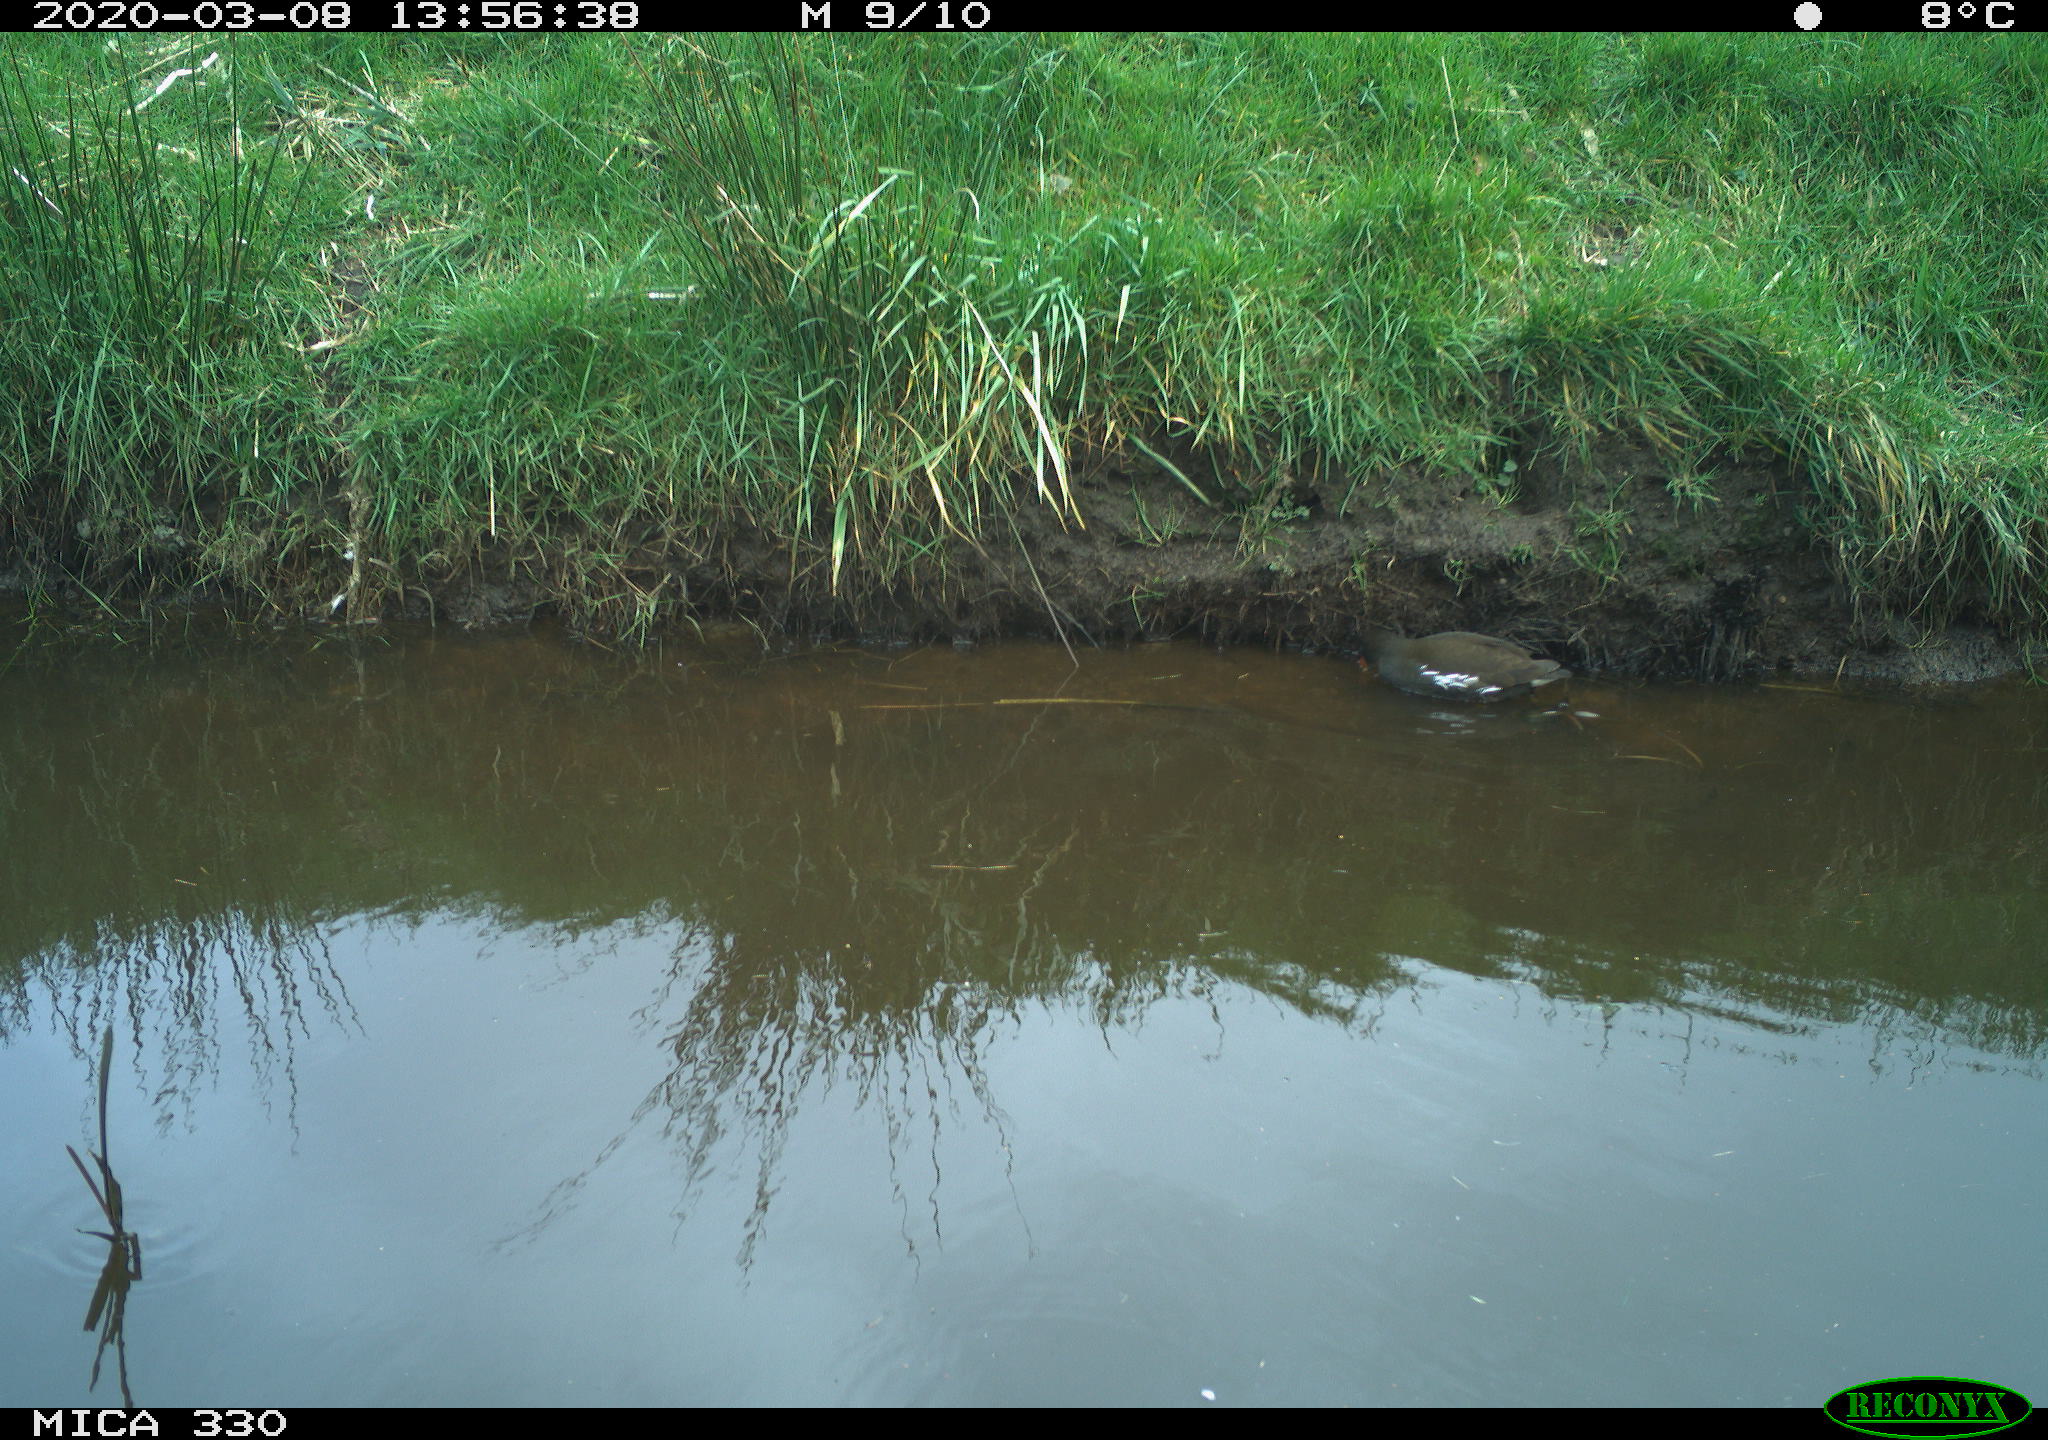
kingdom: Animalia
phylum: Chordata
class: Aves
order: Gruiformes
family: Rallidae
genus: Gallinula
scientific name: Gallinula chloropus
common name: Common moorhen
